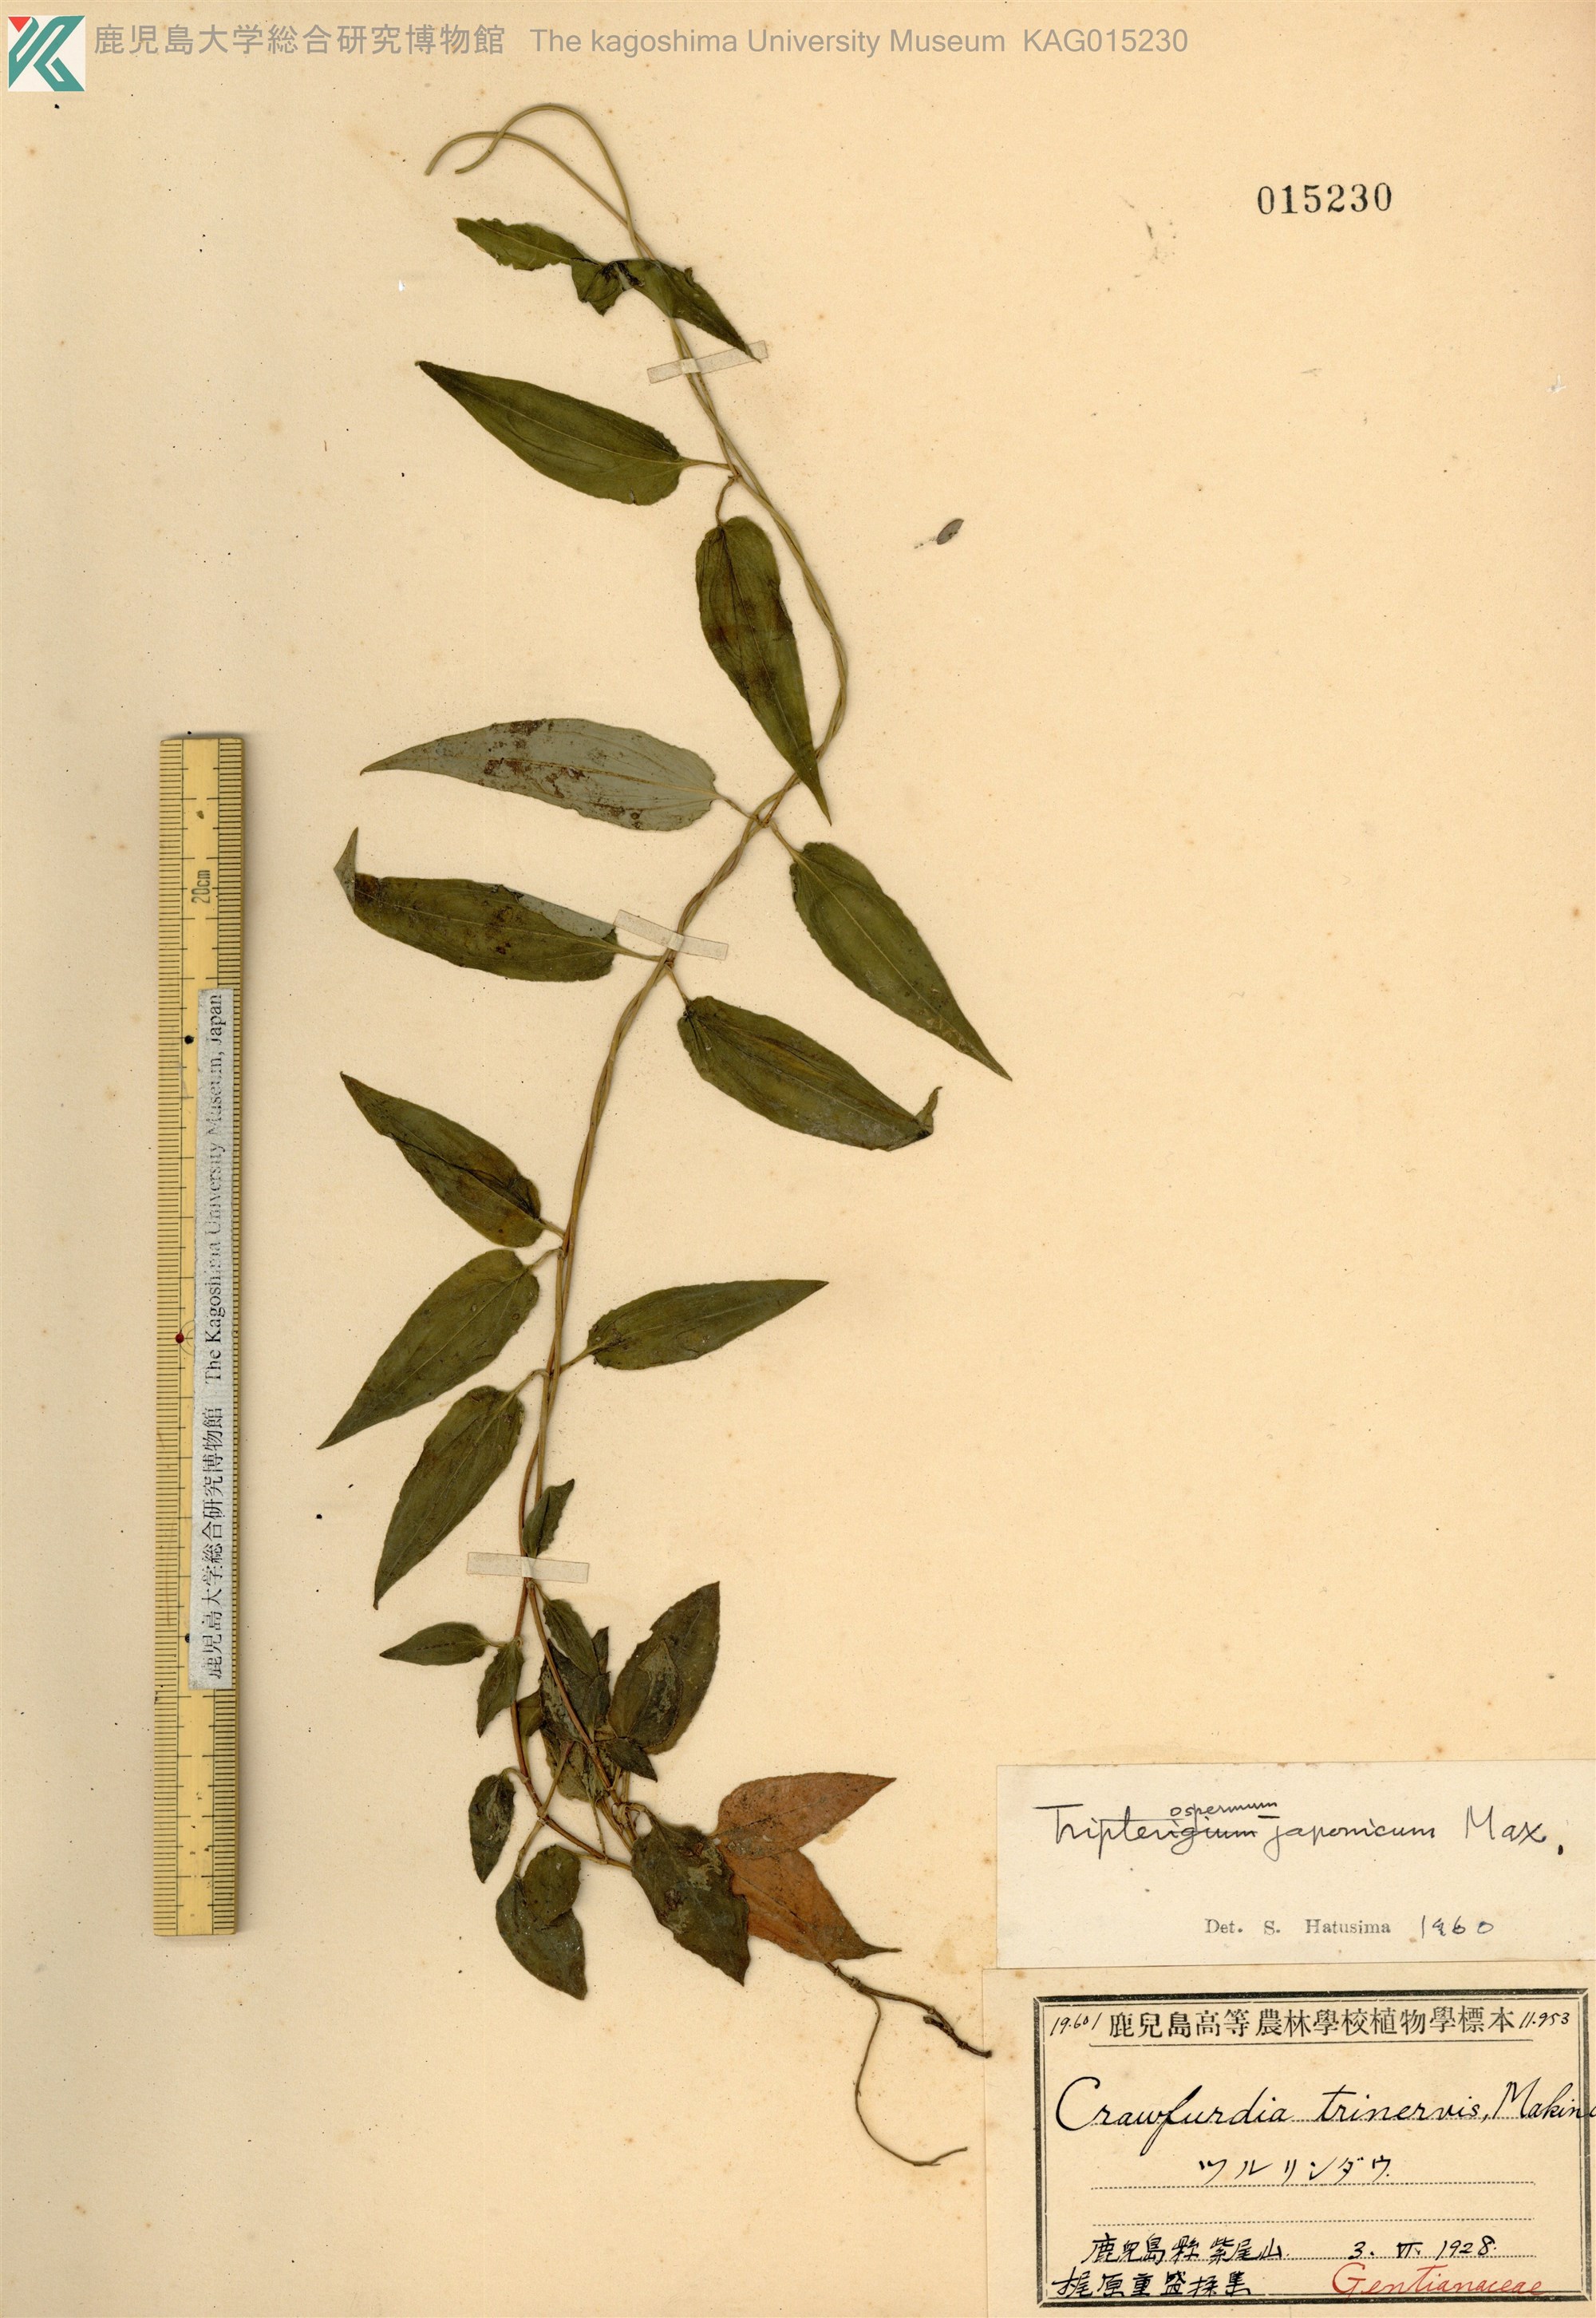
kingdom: Plantae
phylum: Tracheophyta
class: Magnoliopsida
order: Gentianales
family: Gentianaceae
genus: Tripterospermum
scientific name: Tripterospermum trinervium
